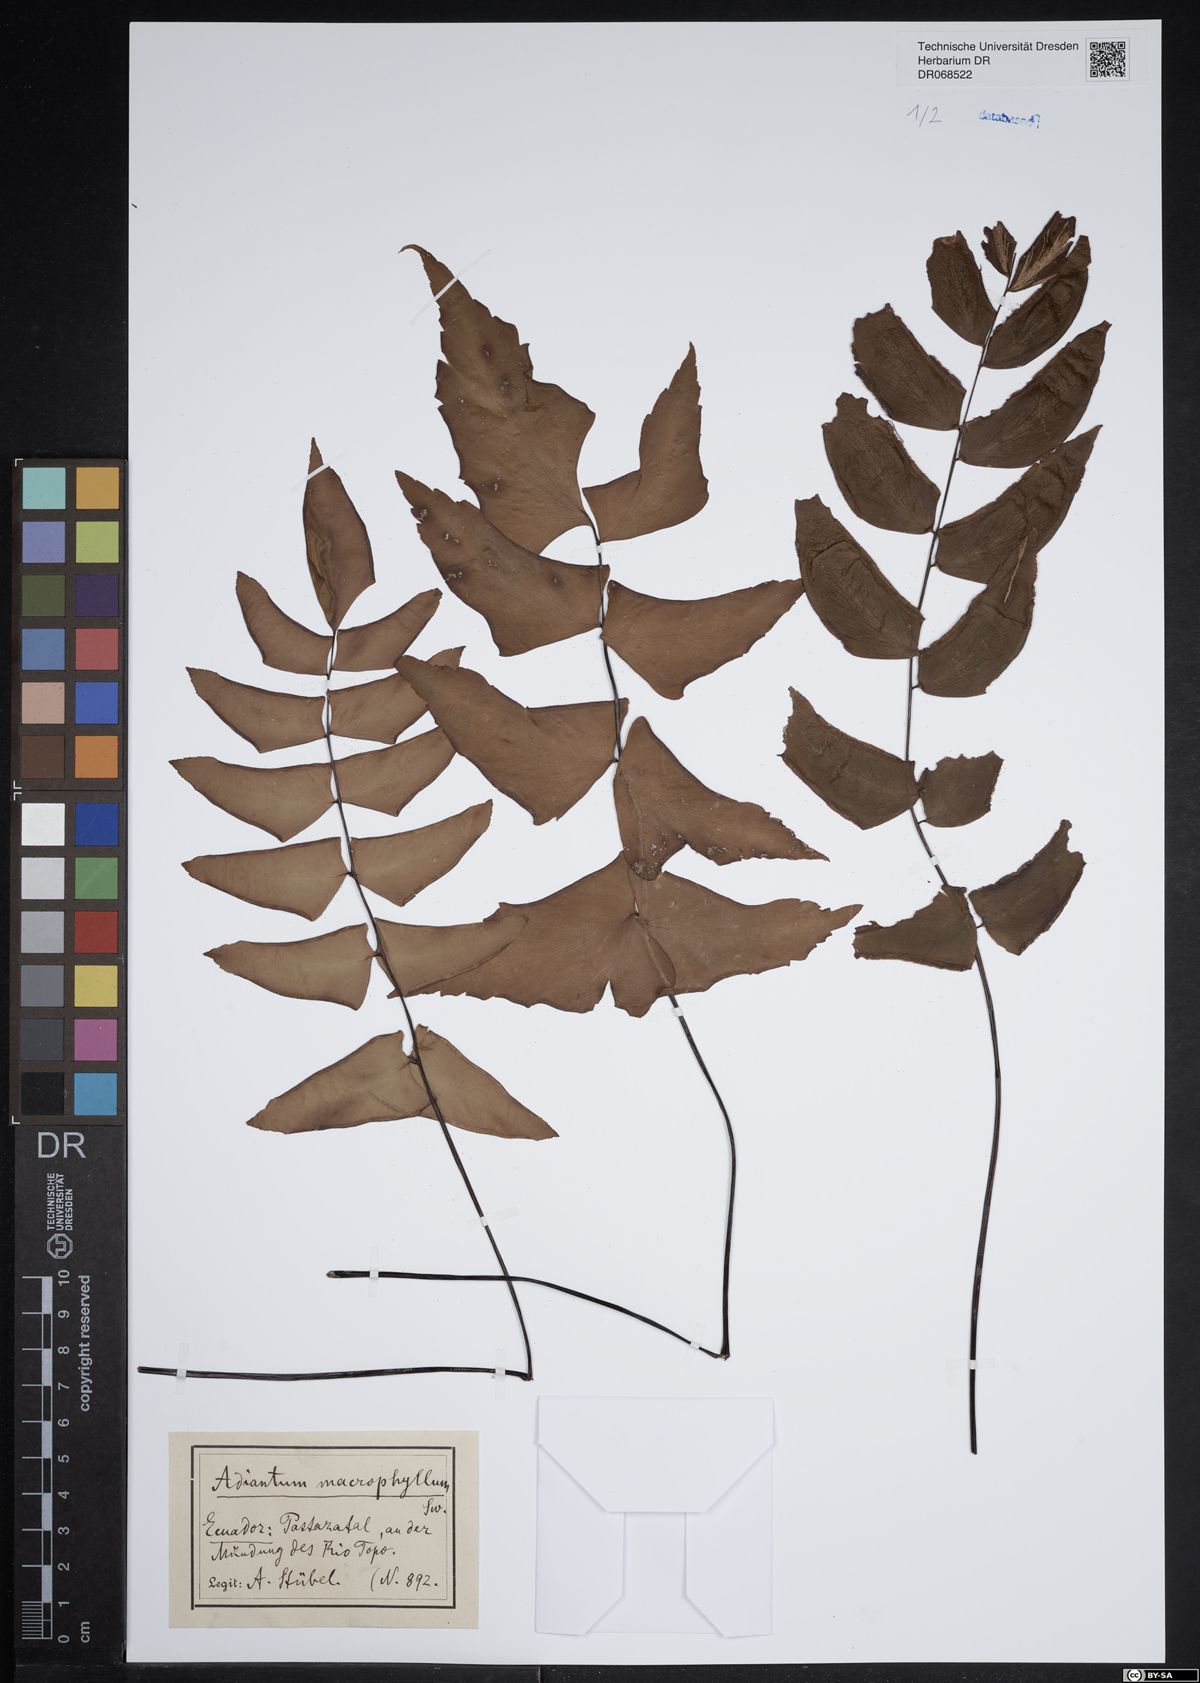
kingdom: Plantae
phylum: Tracheophyta
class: Polypodiopsida
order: Polypodiales
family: Pteridaceae
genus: Adiantum
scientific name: Adiantum macrophyllum
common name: Largeleaf maidenhair
